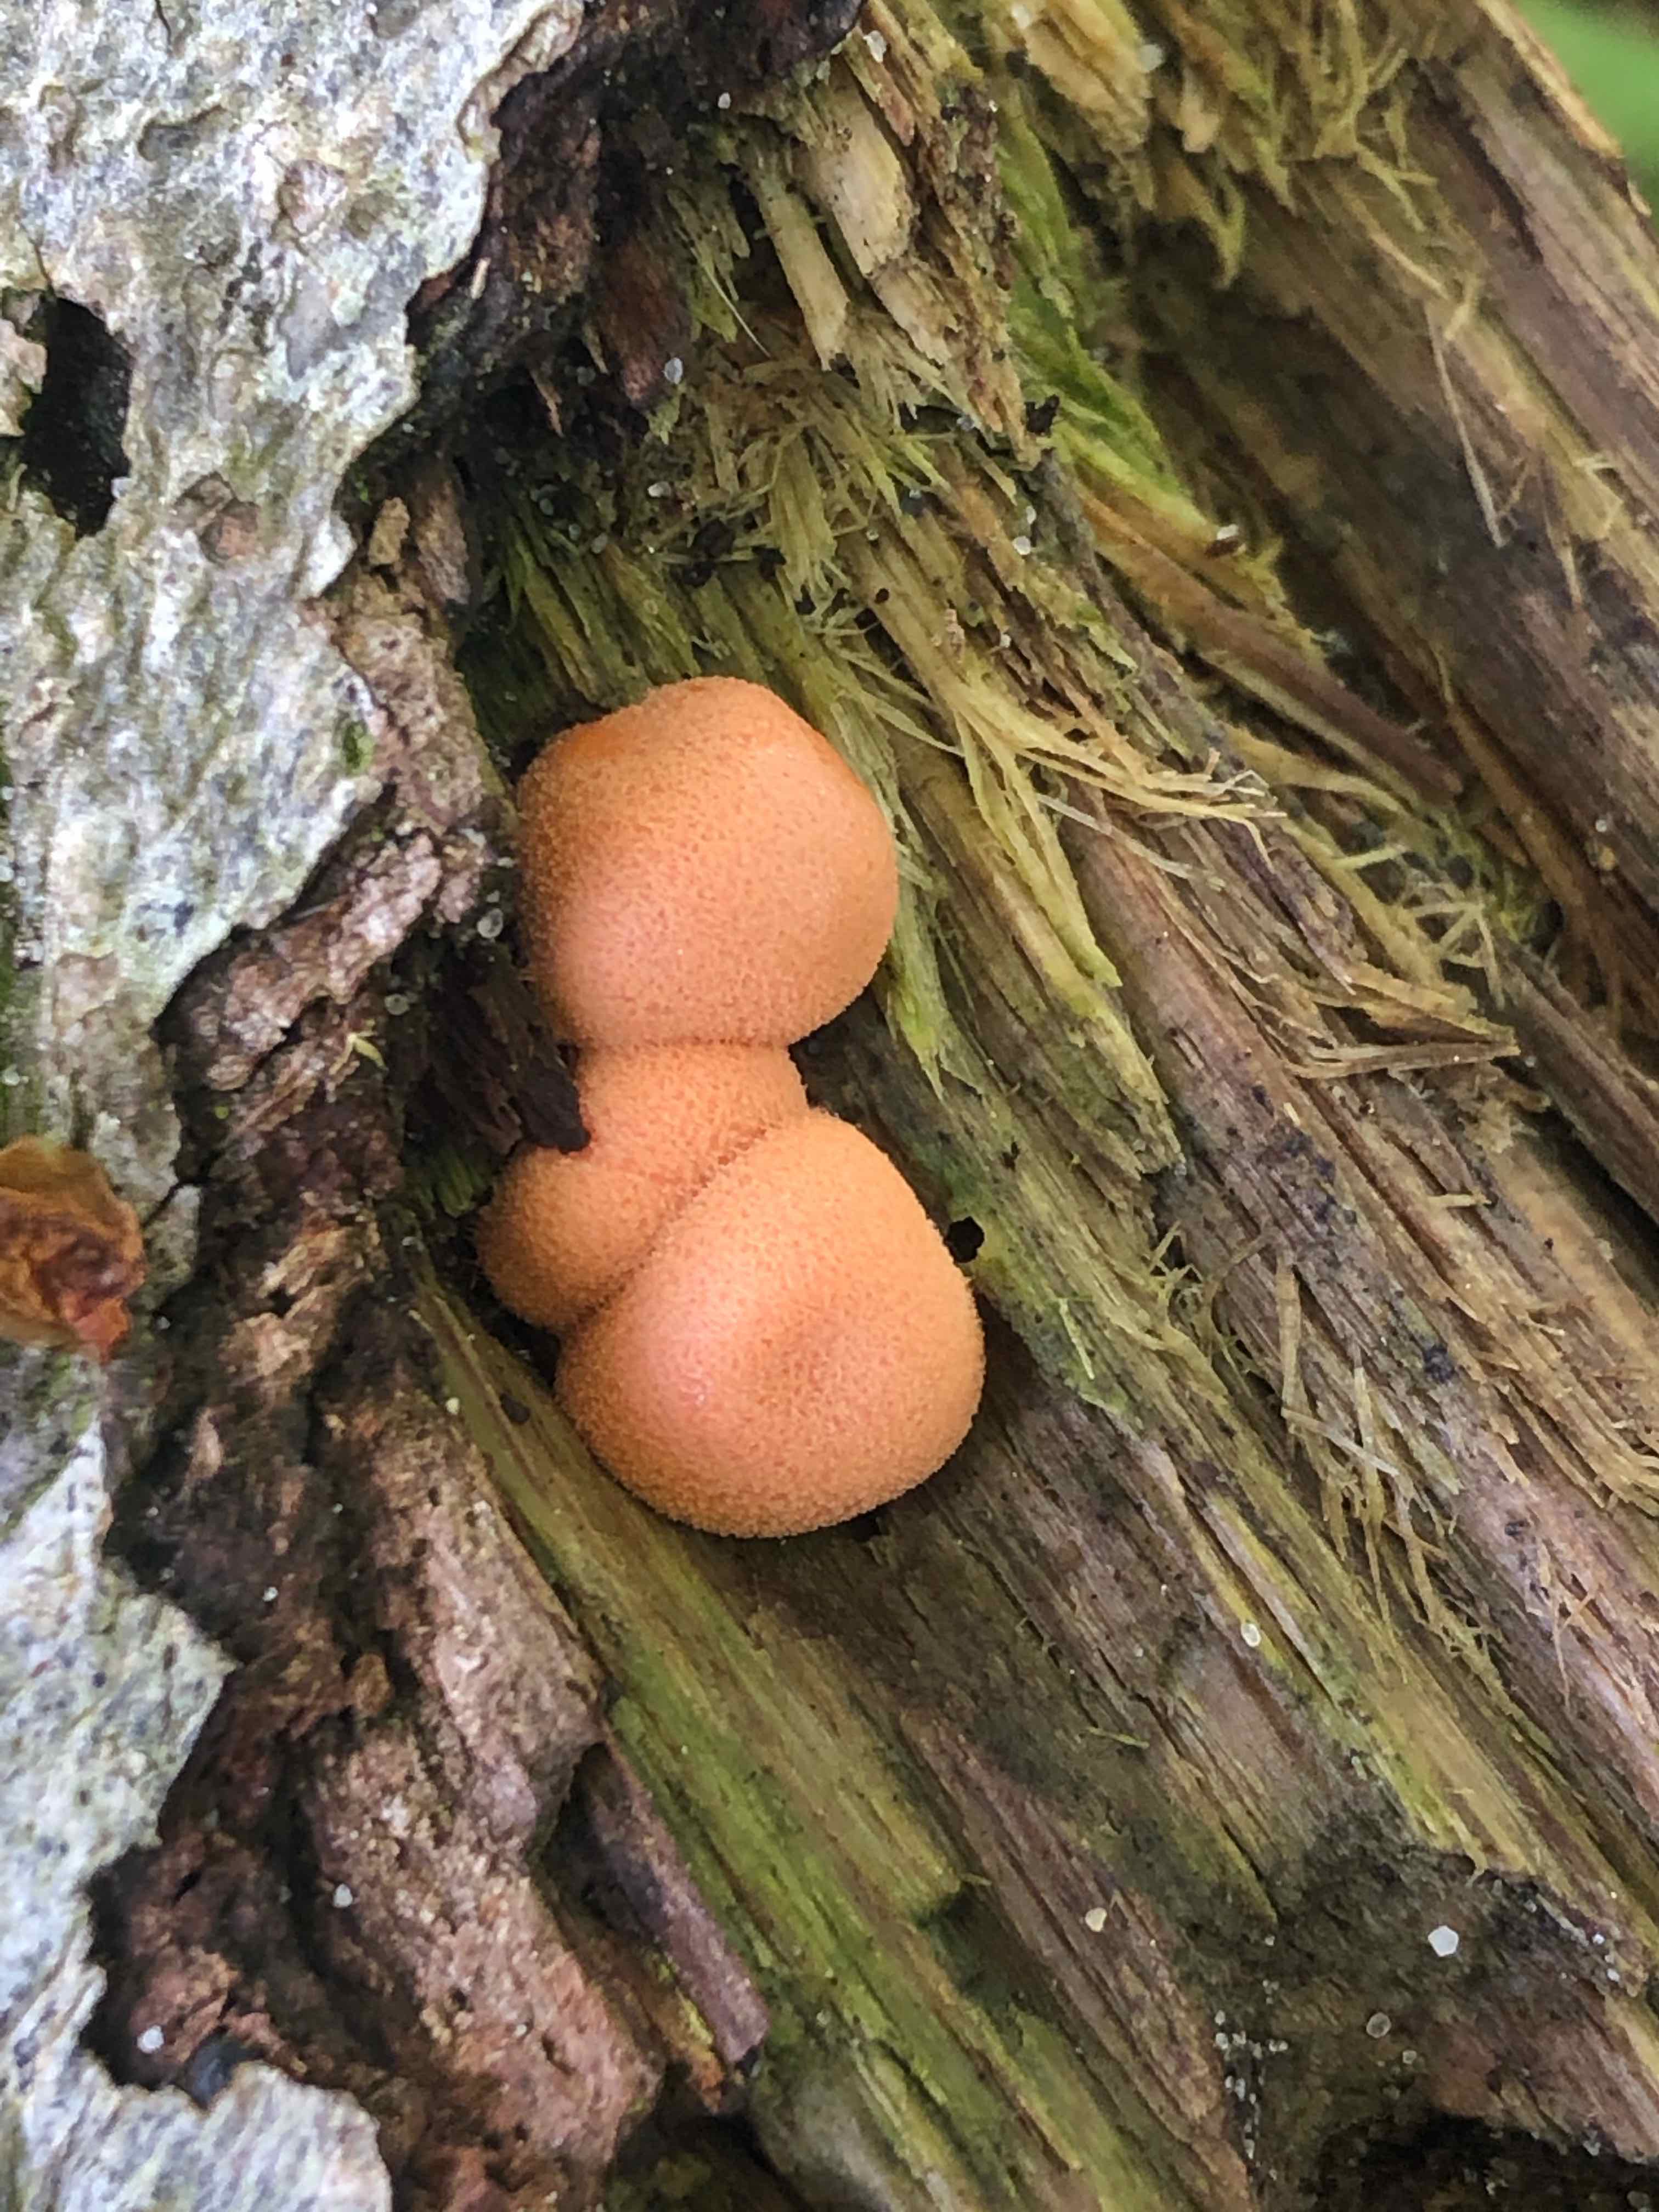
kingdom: Protozoa
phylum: Mycetozoa
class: Myxomycetes
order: Cribrariales
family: Tubiferaceae
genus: Lycogala
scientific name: Lycogala epidendrum
